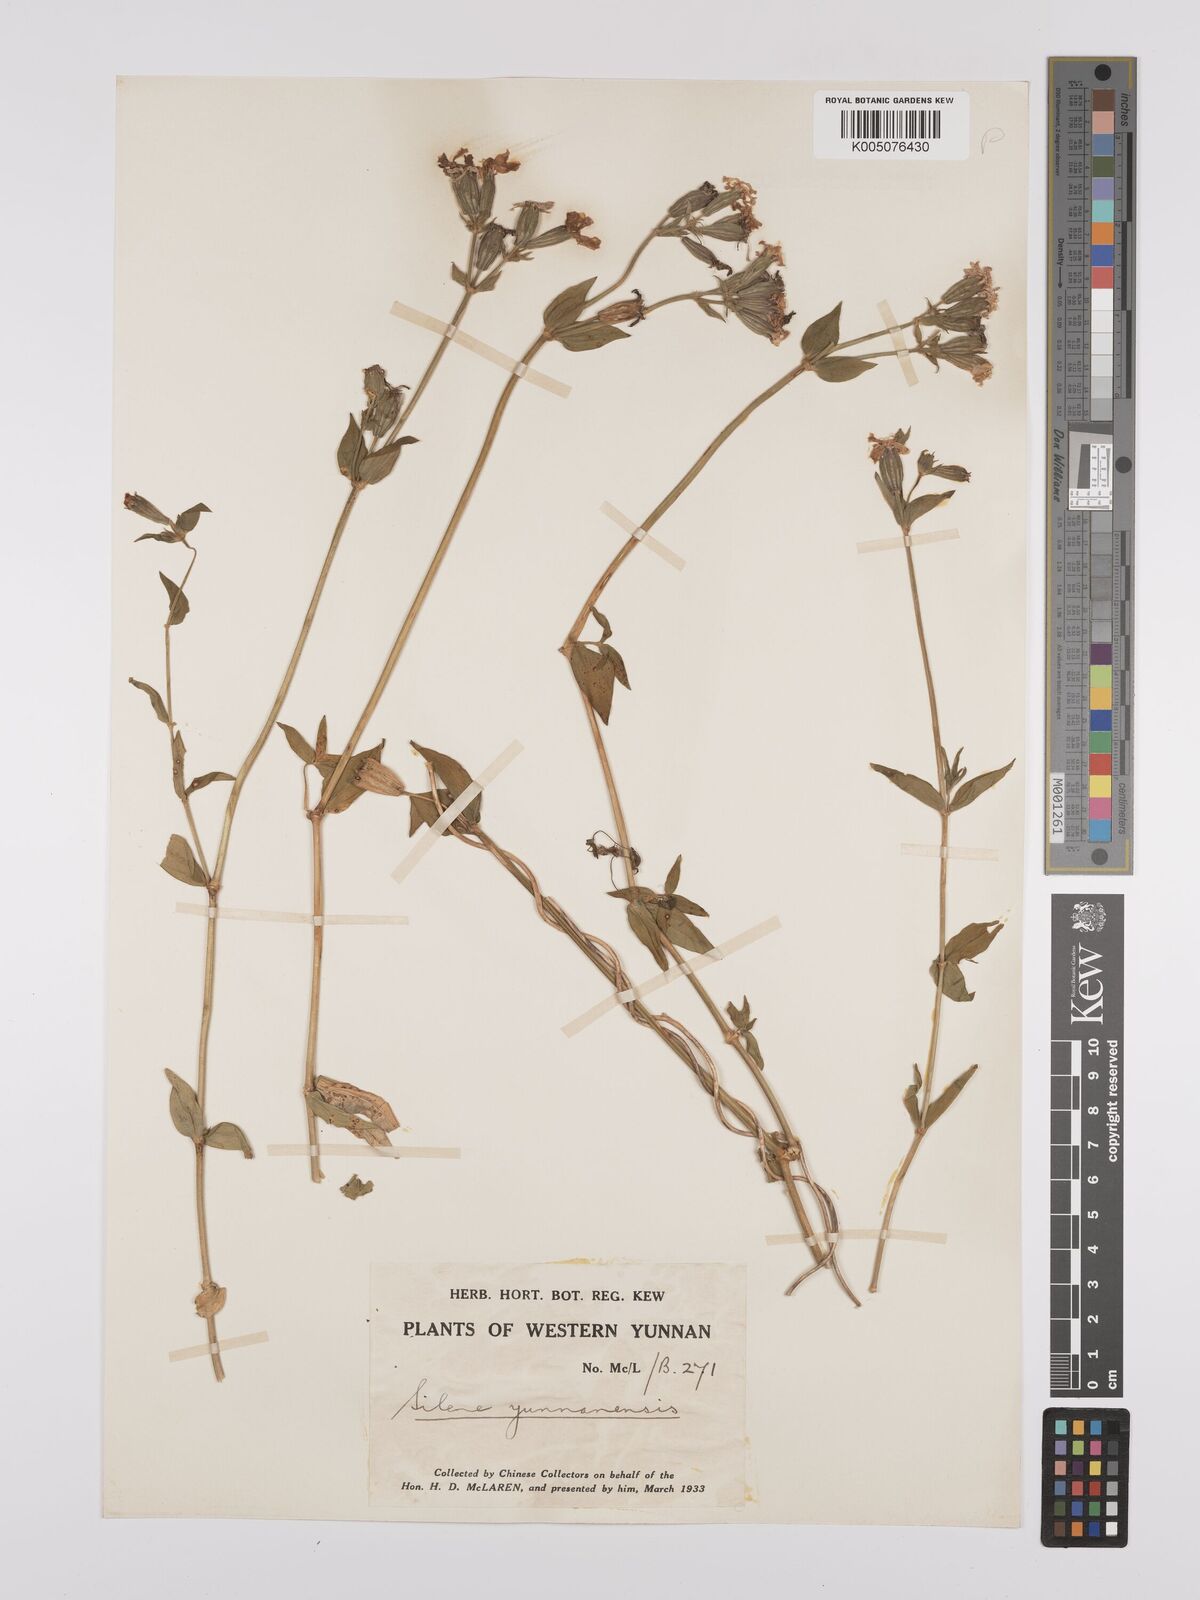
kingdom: Plantae
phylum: Tracheophyta
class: Magnoliopsida
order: Caryophyllales
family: Caryophyllaceae
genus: Silene
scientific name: Silene yunnanensis
